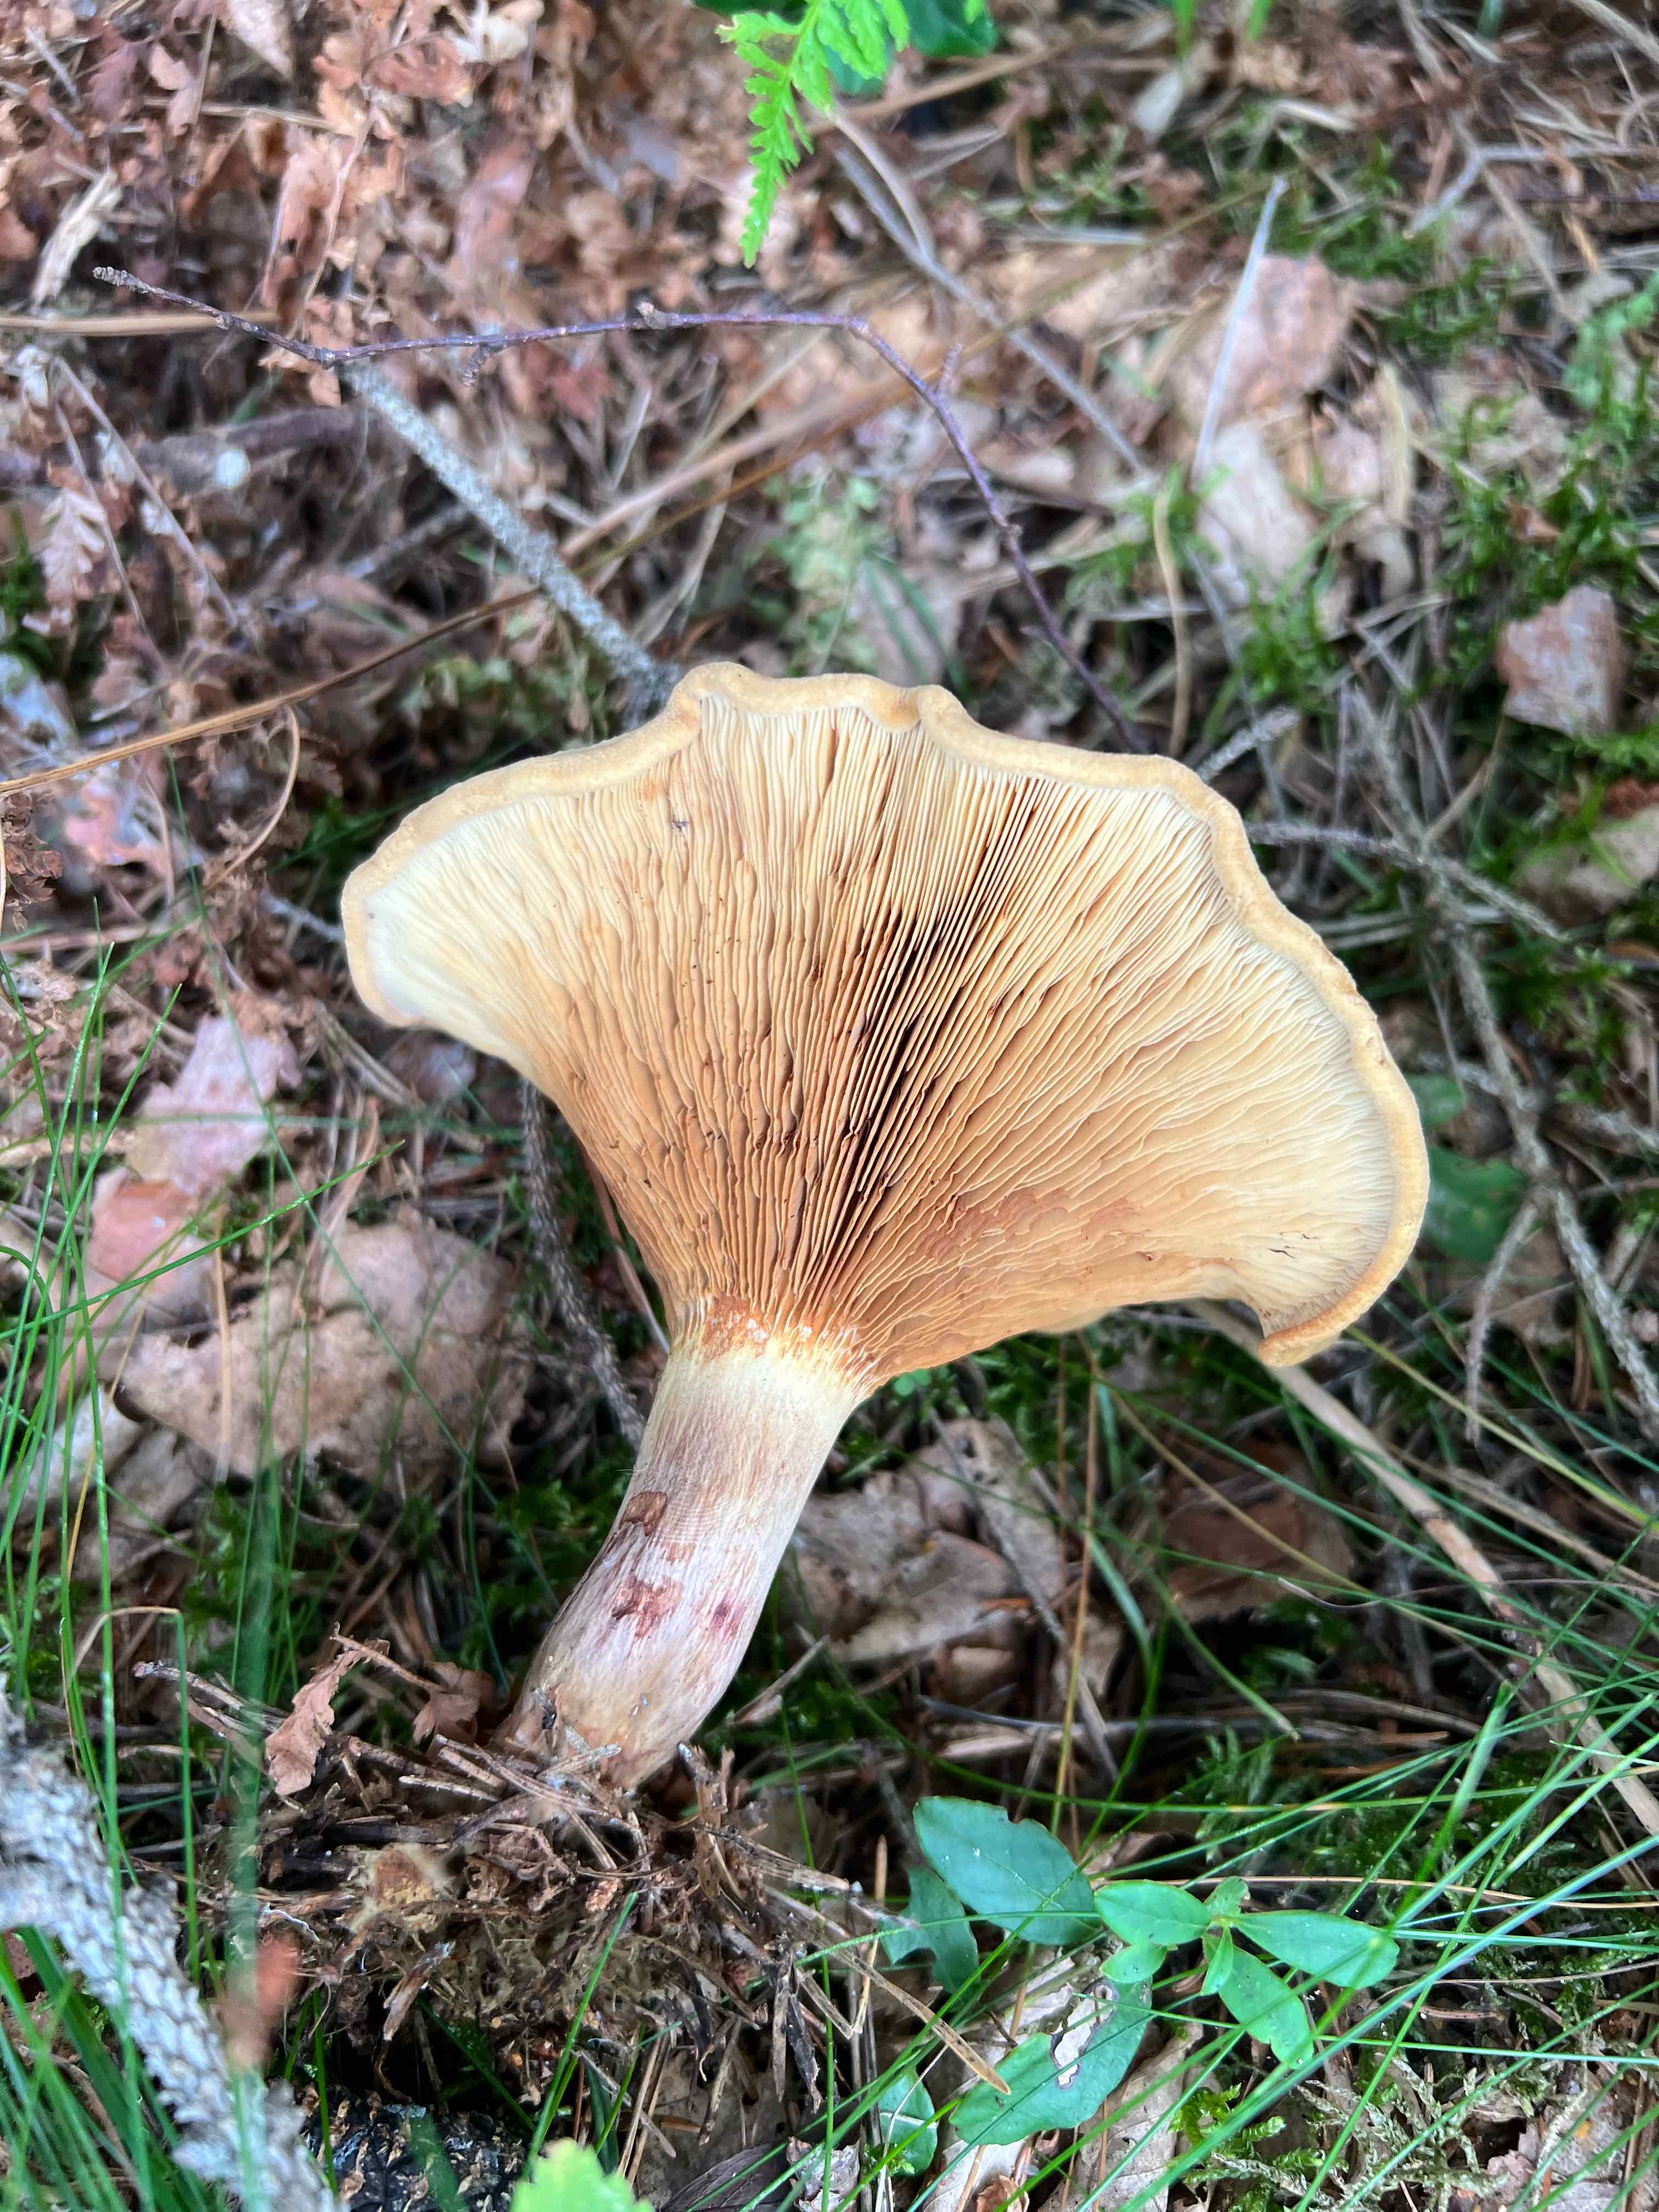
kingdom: Fungi
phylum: Basidiomycota
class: Agaricomycetes
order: Boletales
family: Paxillaceae
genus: Paxillus
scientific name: Paxillus involutus
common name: almindelig netbladhat
